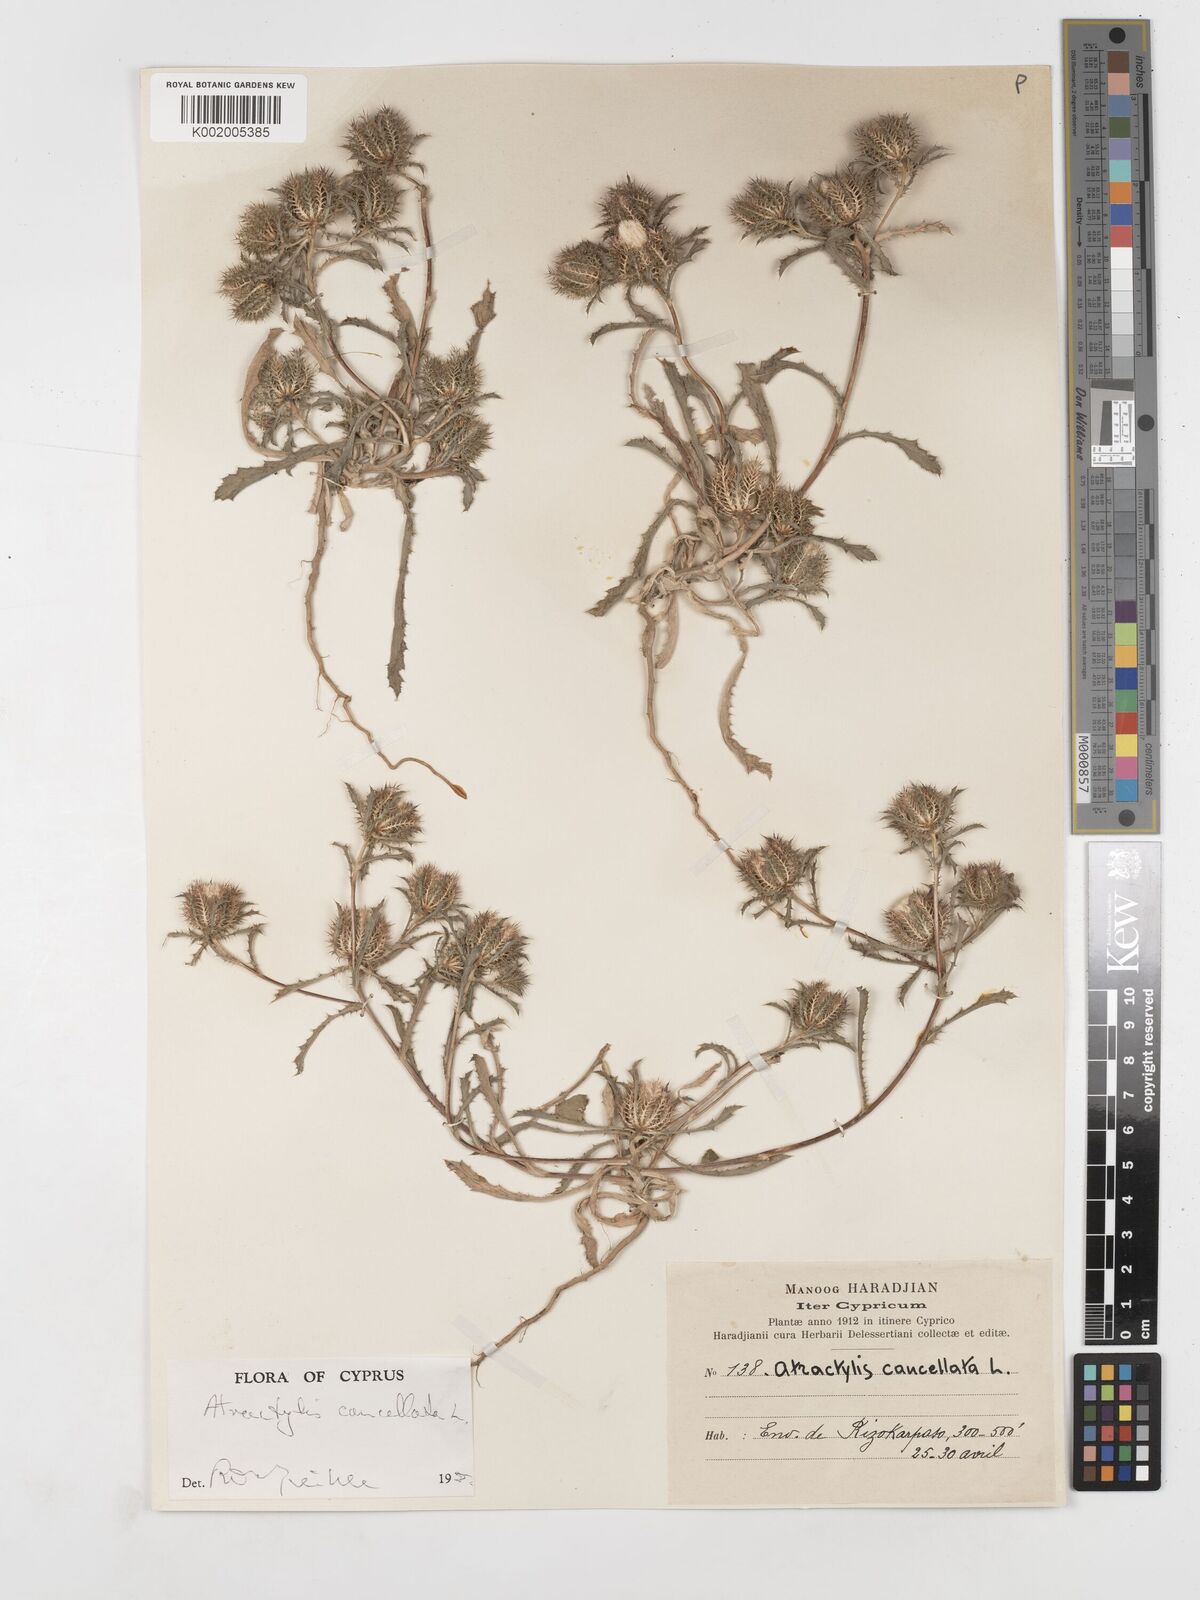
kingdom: Plantae
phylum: Tracheophyta
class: Magnoliopsida
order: Asterales
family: Asteraceae
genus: Atractylis
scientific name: Atractylis cancellata
